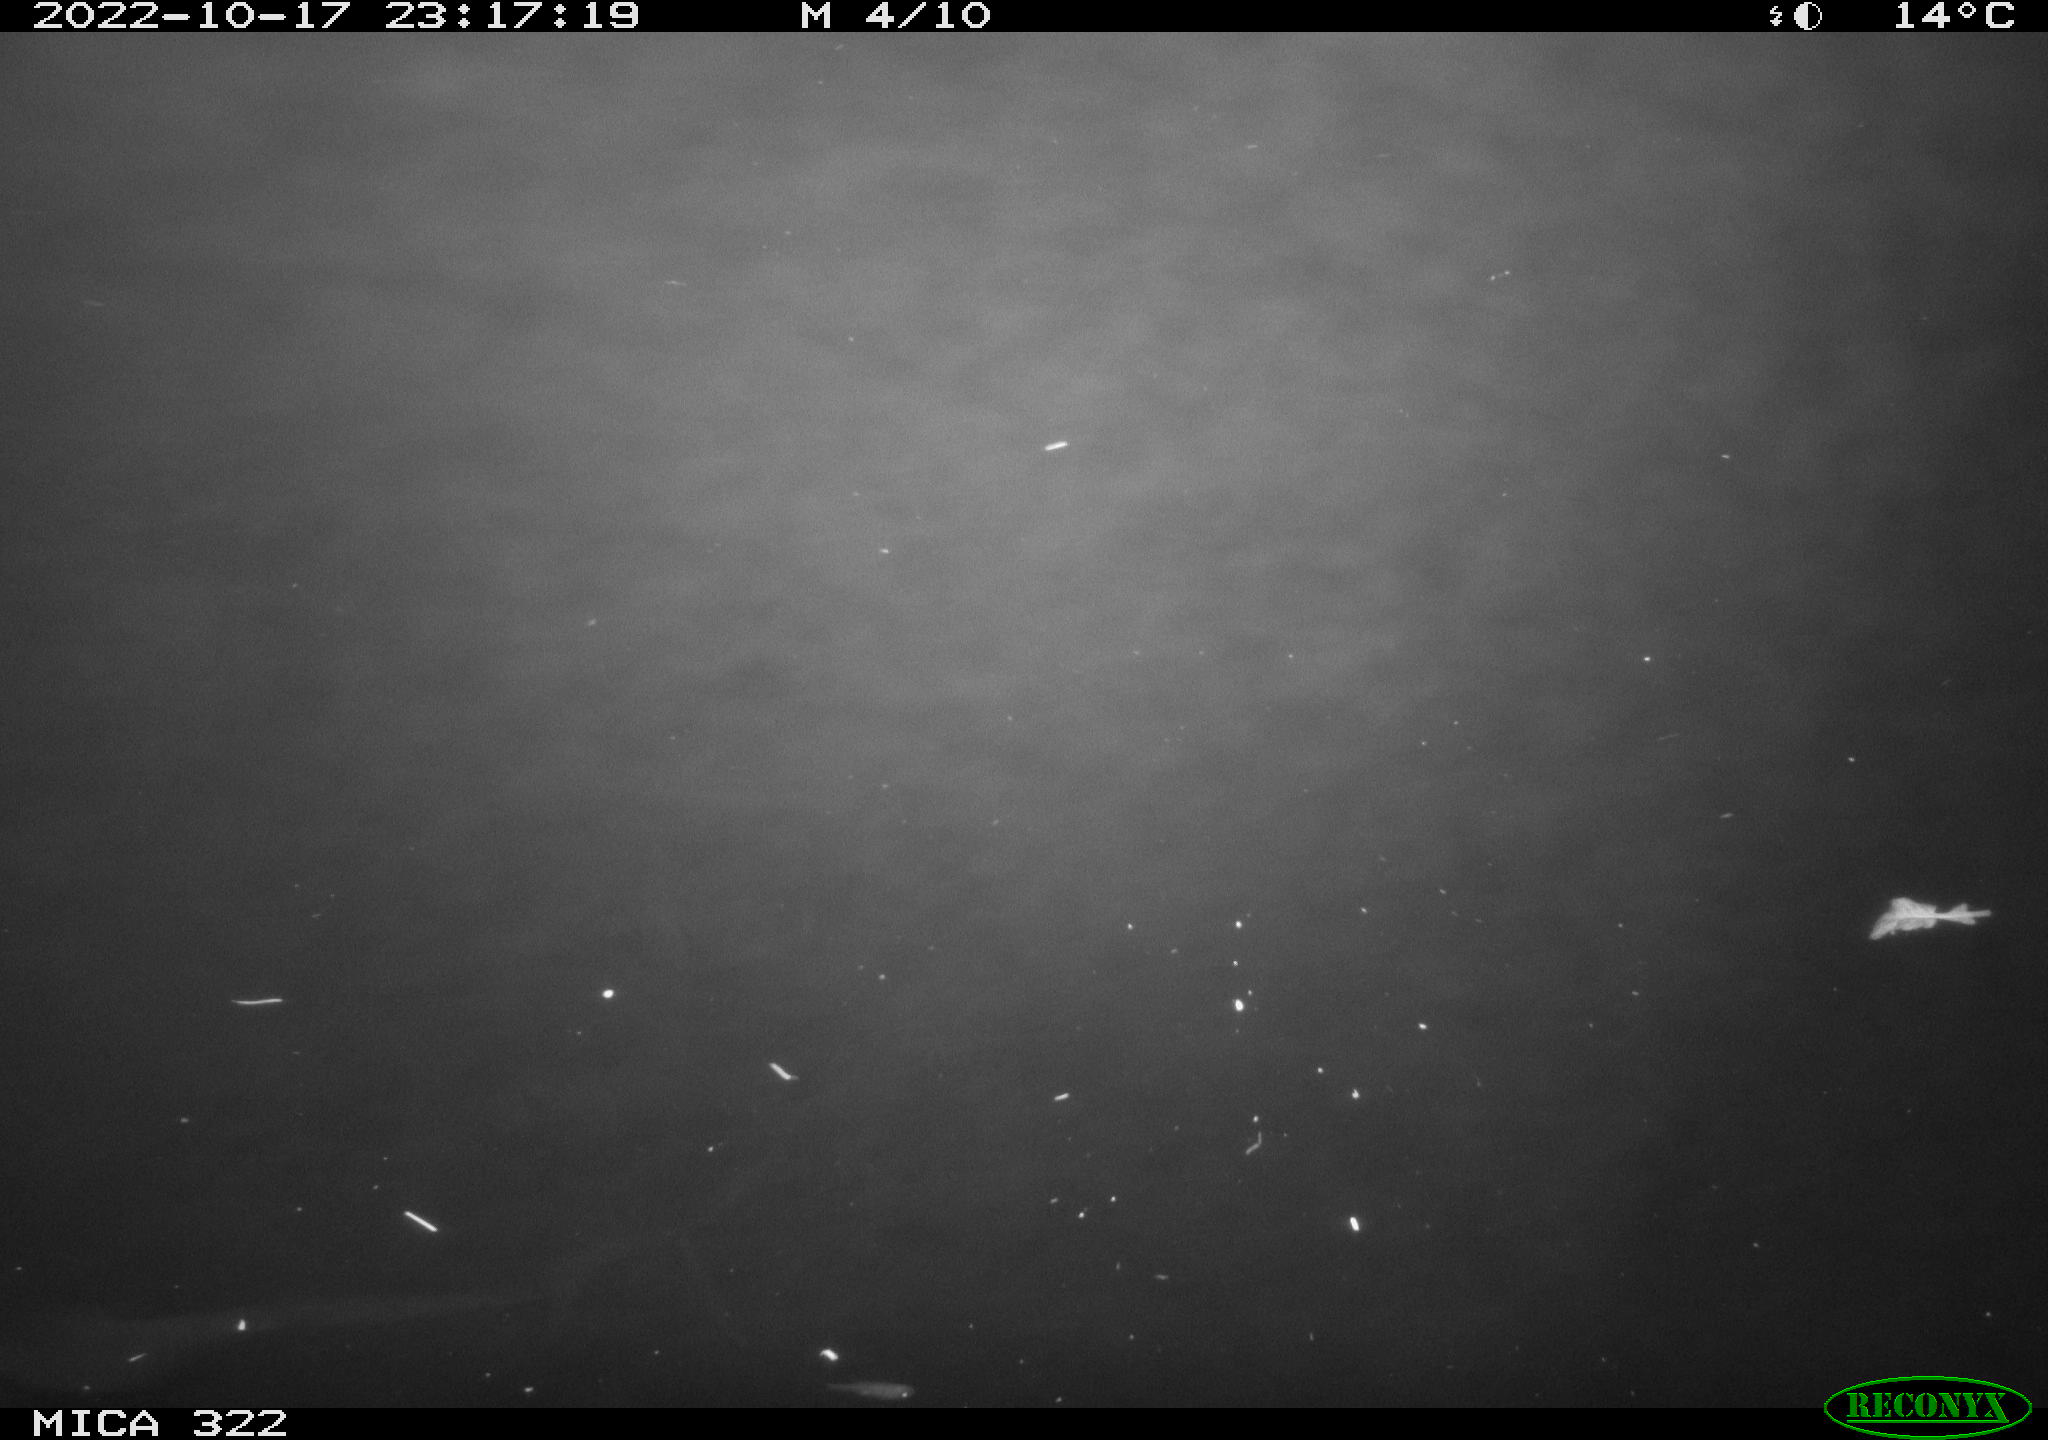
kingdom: Animalia
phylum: Chordata
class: Mammalia
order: Rodentia
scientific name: Rodentia
